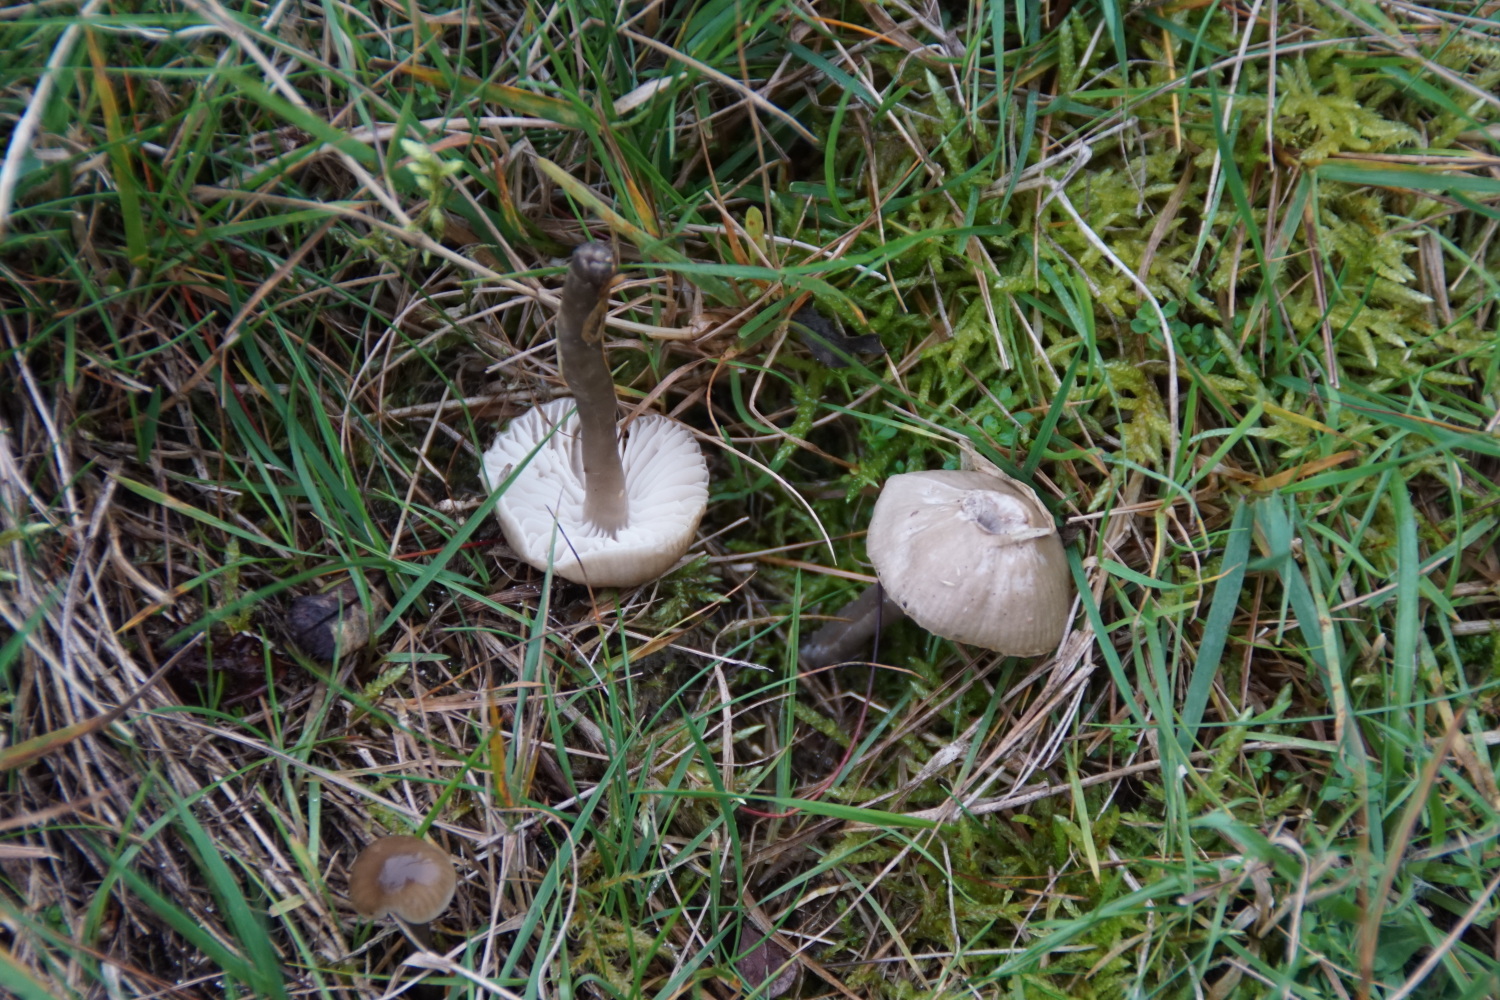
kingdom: Fungi
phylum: Basidiomycota
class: Agaricomycetes
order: Agaricales
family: Hygrophoraceae
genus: Gliophorus
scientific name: Gliophorus irrigatus
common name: slimet vokshat
